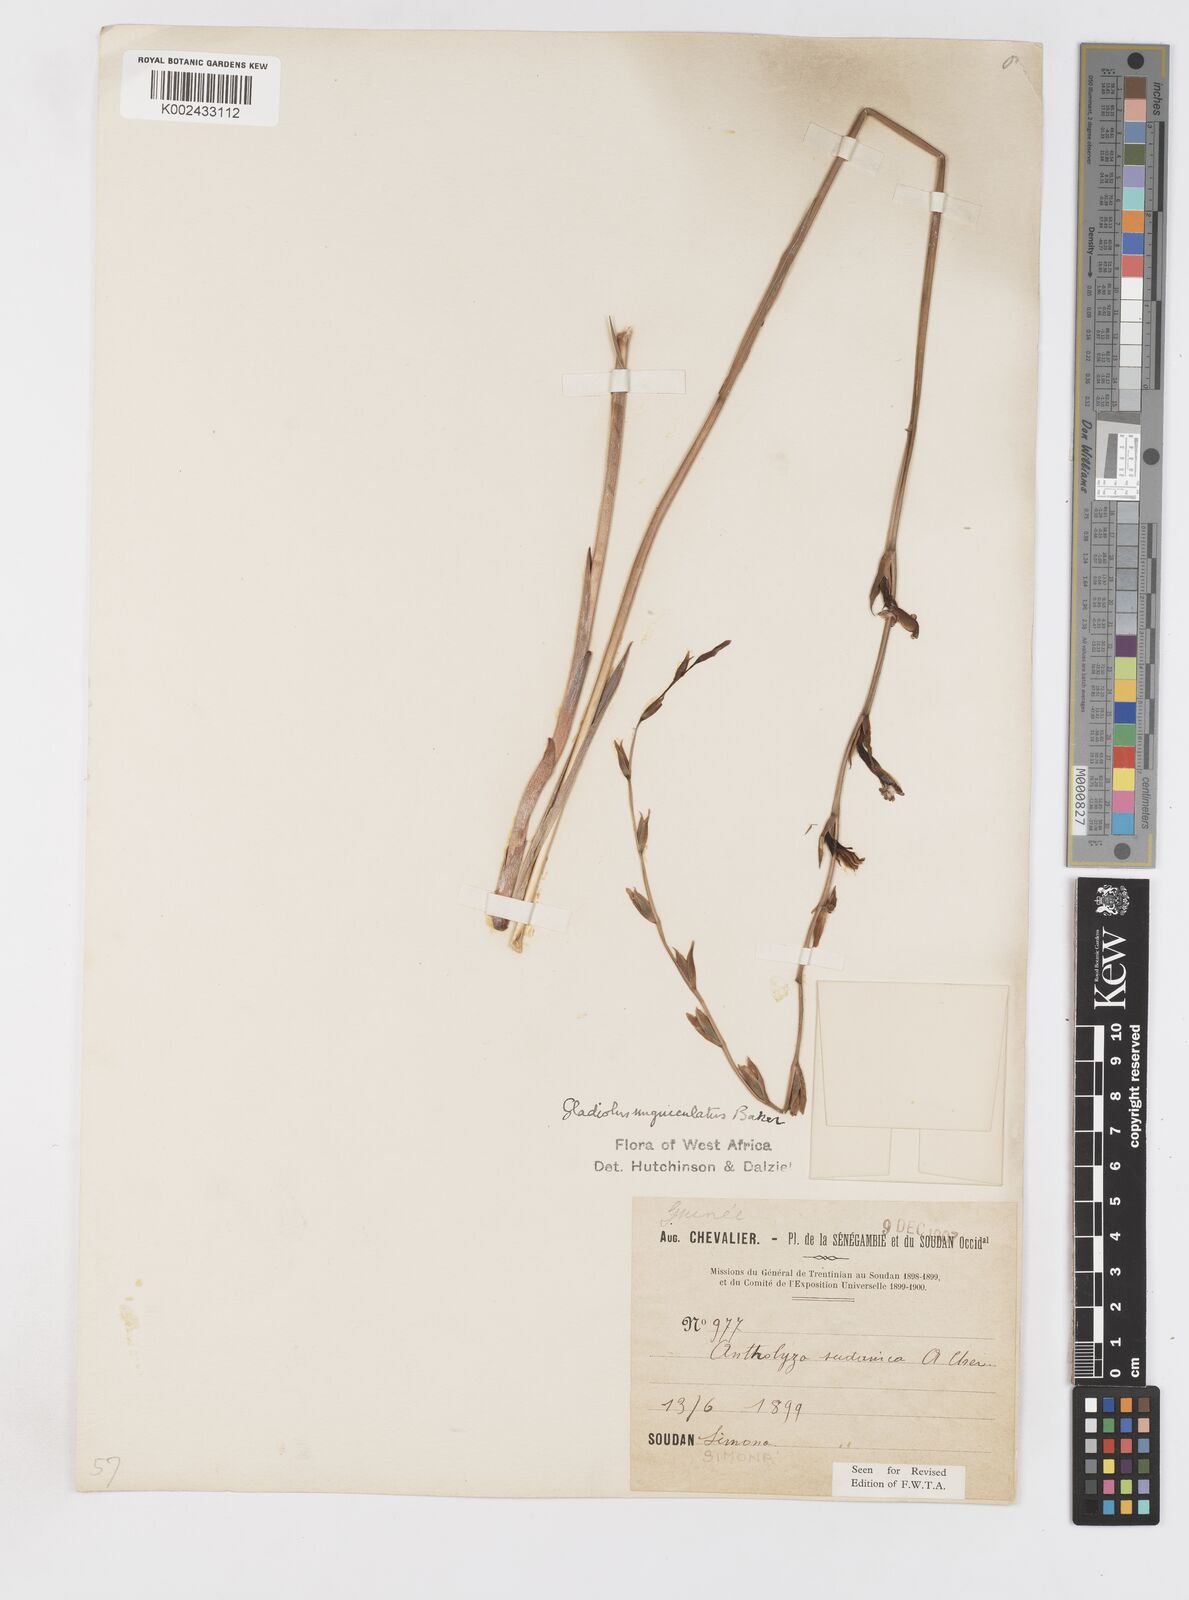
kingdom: Plantae
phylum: Tracheophyta
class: Liliopsida
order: Asparagales
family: Iridaceae
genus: Gladiolus
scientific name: Gladiolus
